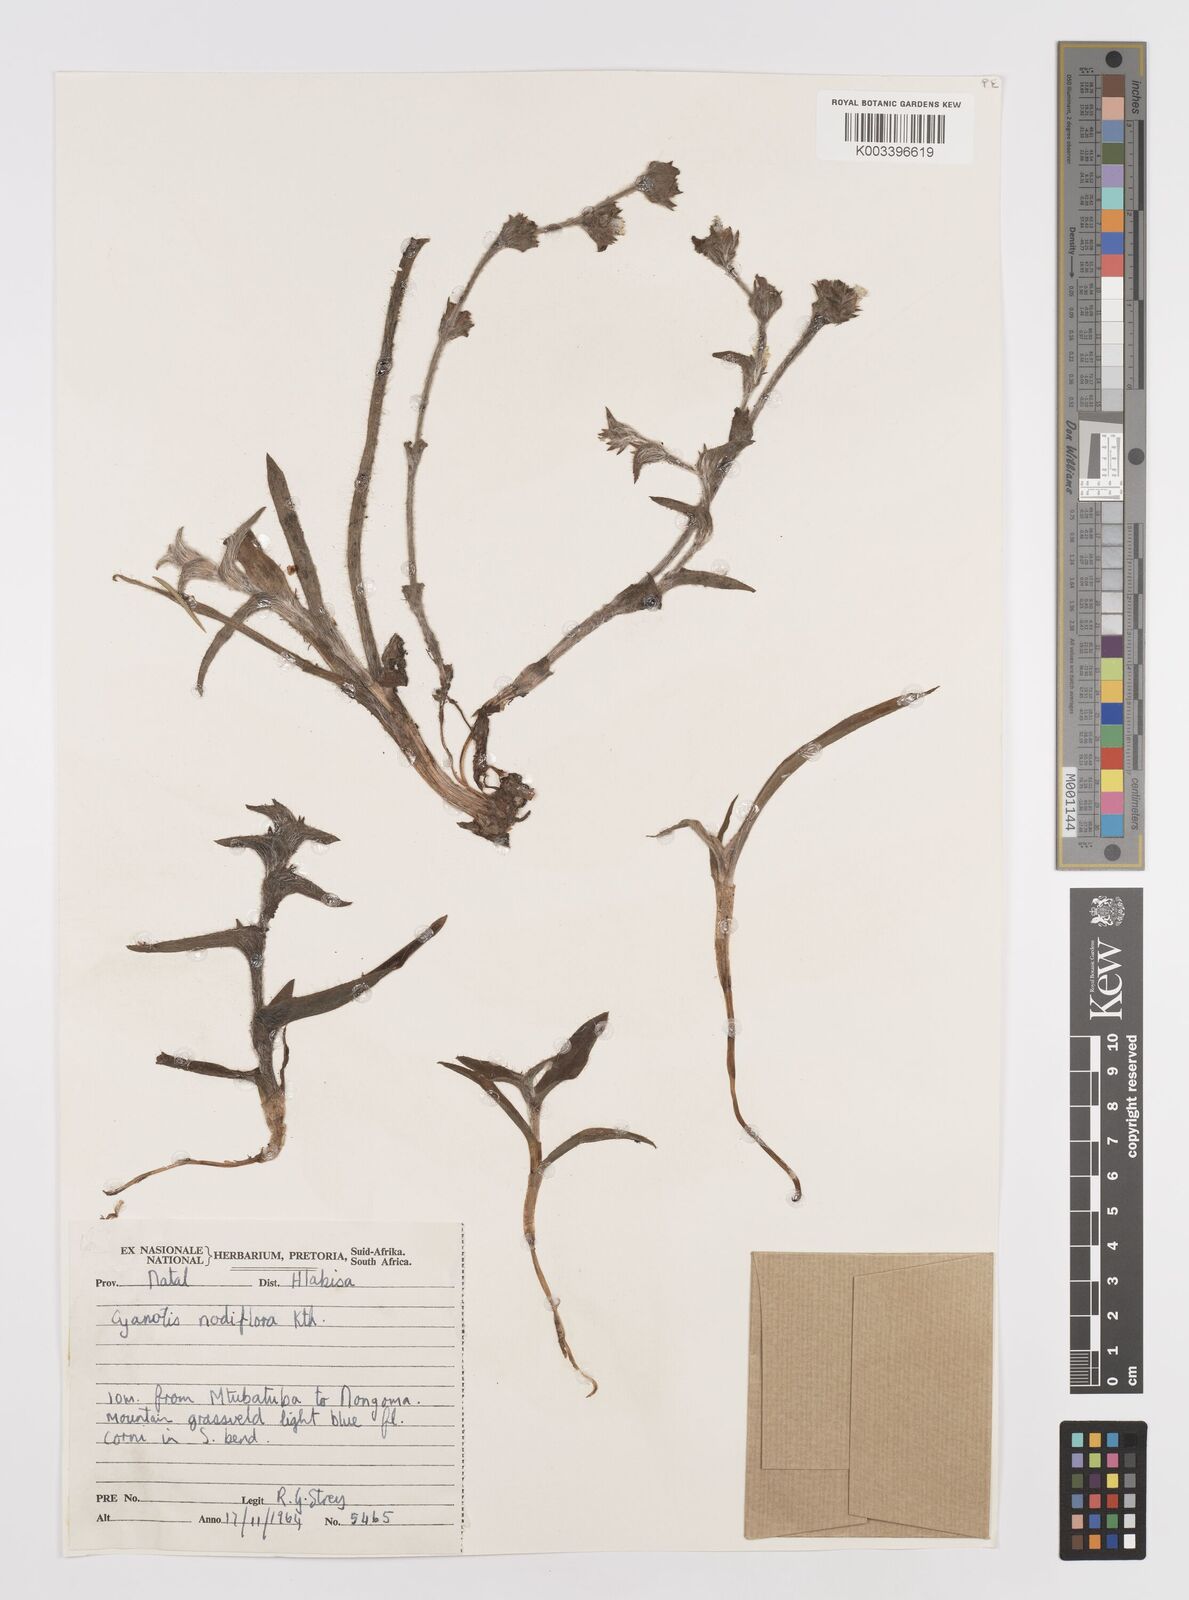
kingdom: Plantae
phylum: Tracheophyta
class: Liliopsida
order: Commelinales
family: Commelinaceae
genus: Cyanotis
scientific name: Cyanotis speciosa
